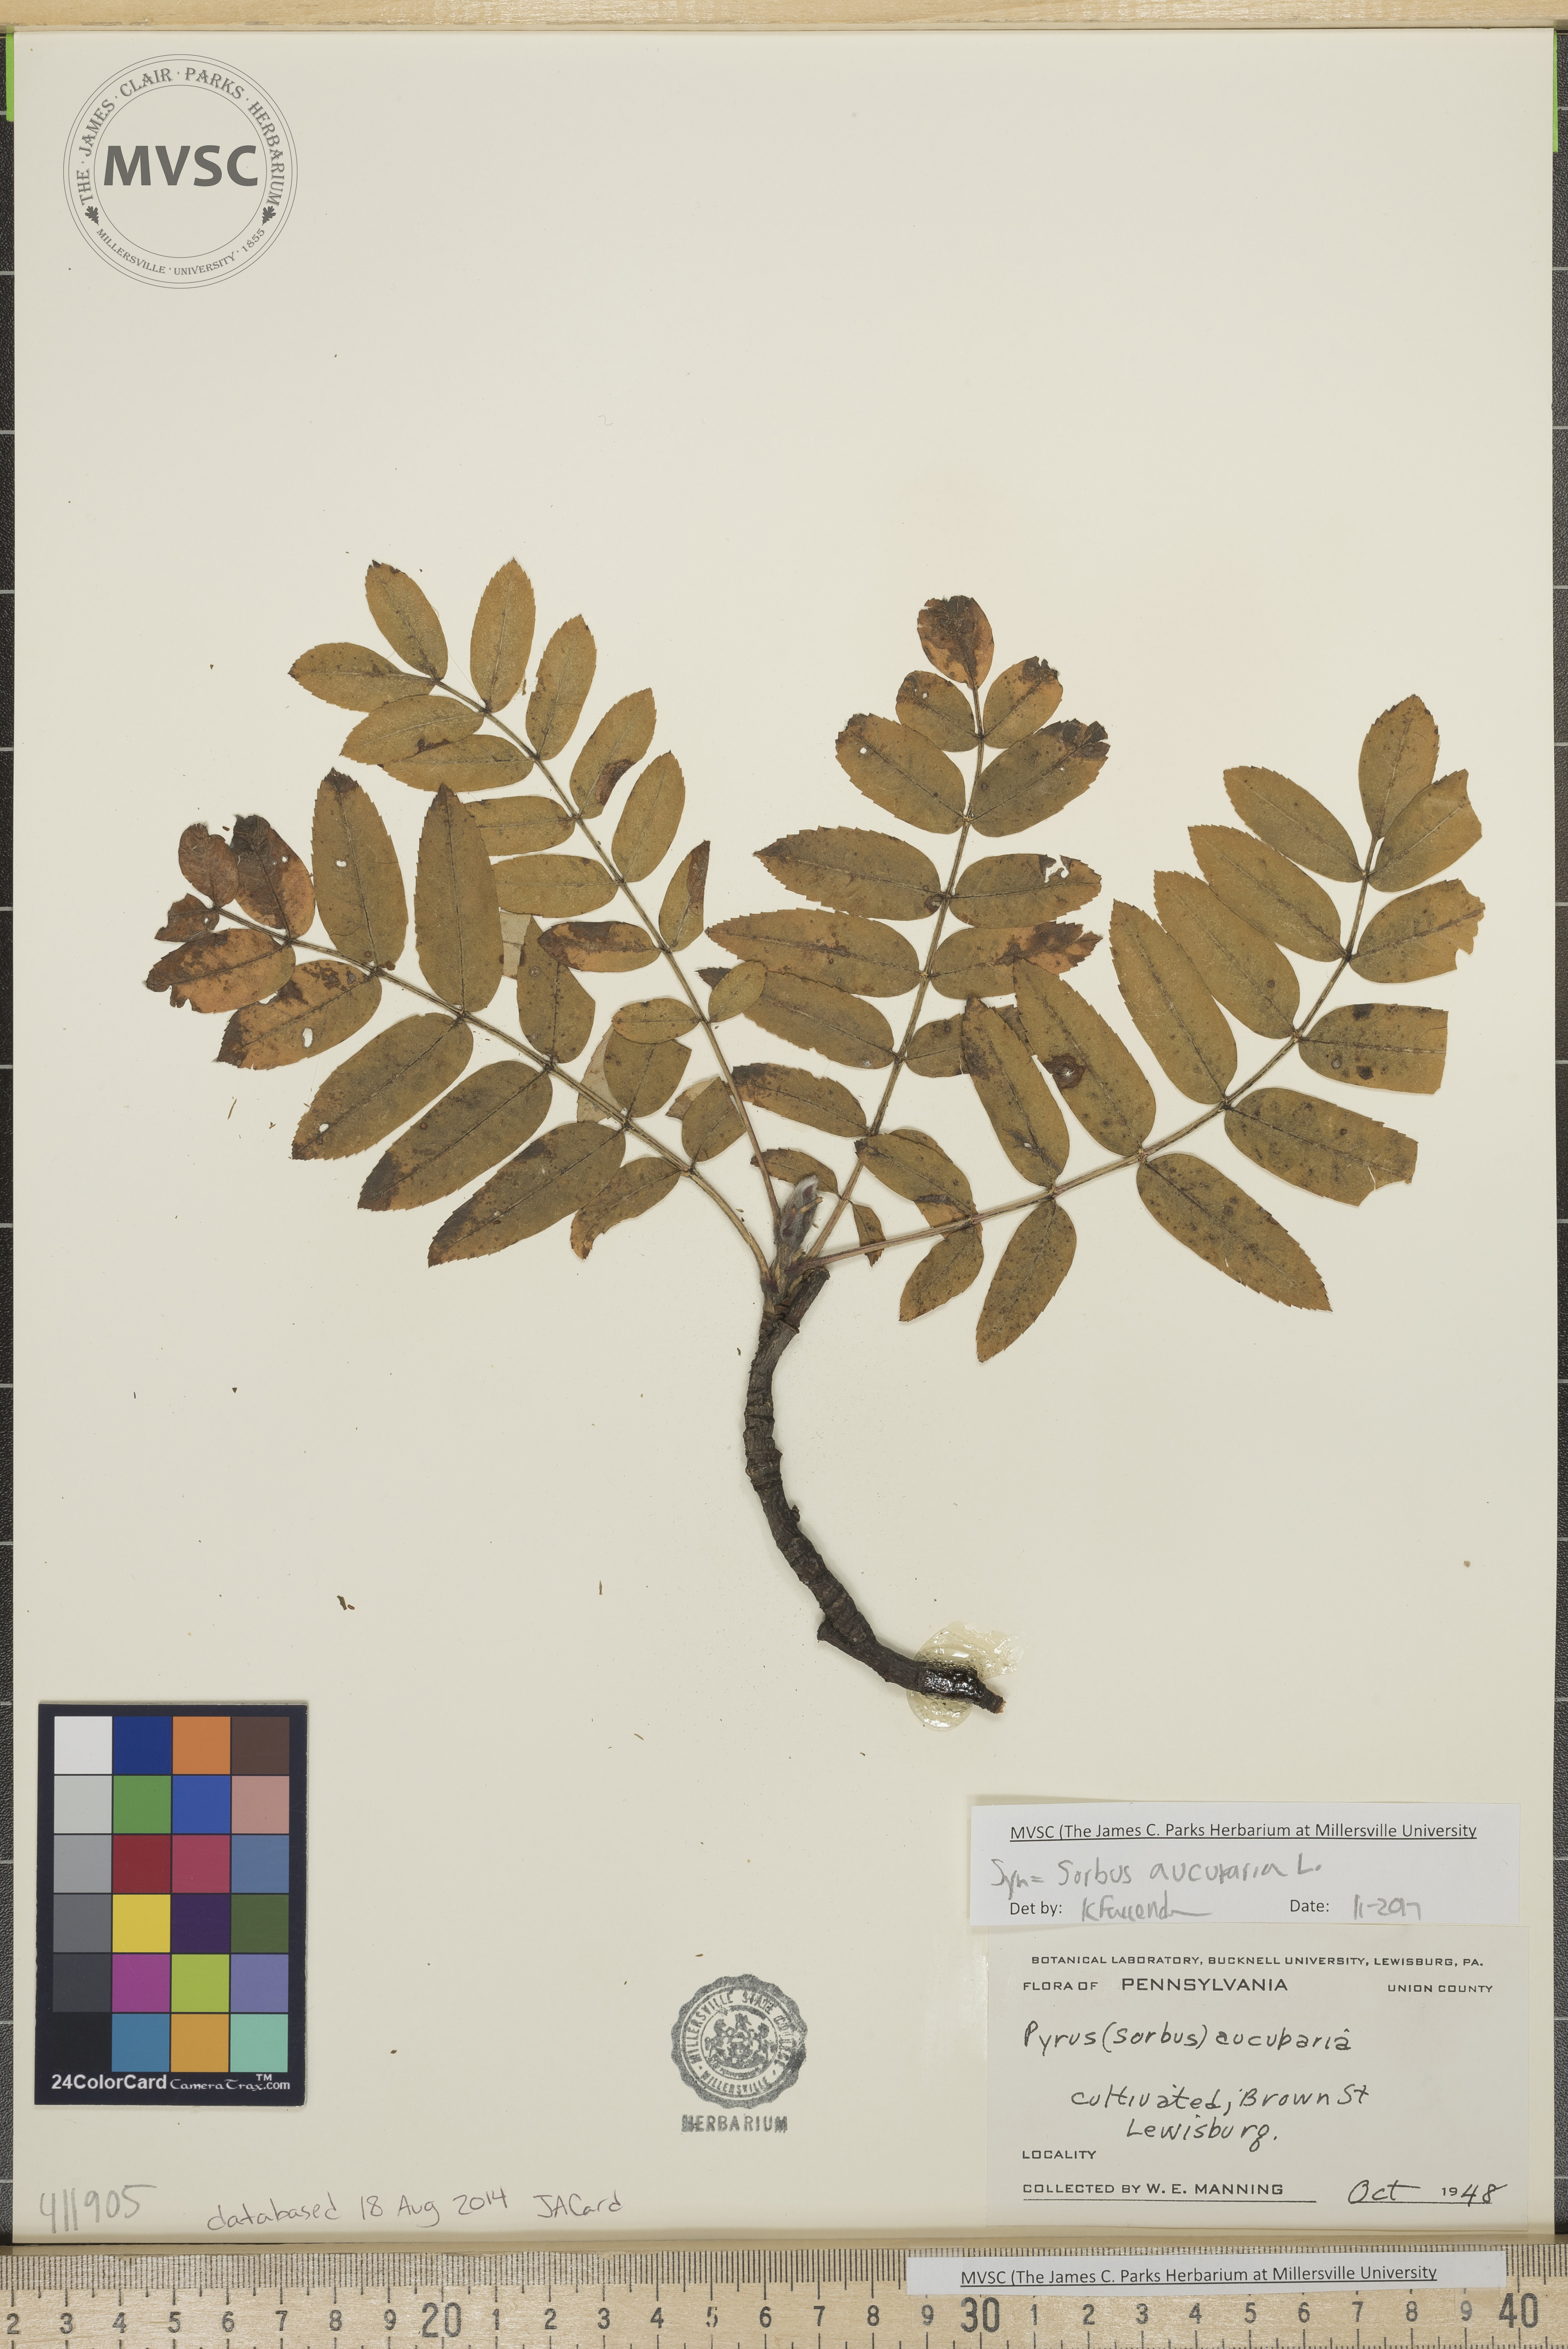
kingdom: Plantae
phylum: Tracheophyta
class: Magnoliopsida
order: Rosales
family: Rosaceae
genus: Sorbus
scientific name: Sorbus aucuparia
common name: Rowan
